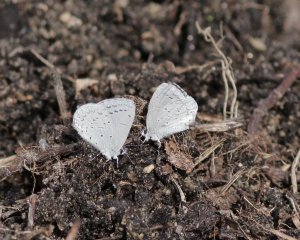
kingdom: Animalia
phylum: Arthropoda
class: Insecta
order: Lepidoptera
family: Lycaenidae
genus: Celastrina
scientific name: Celastrina ladon
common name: Echo Azure
